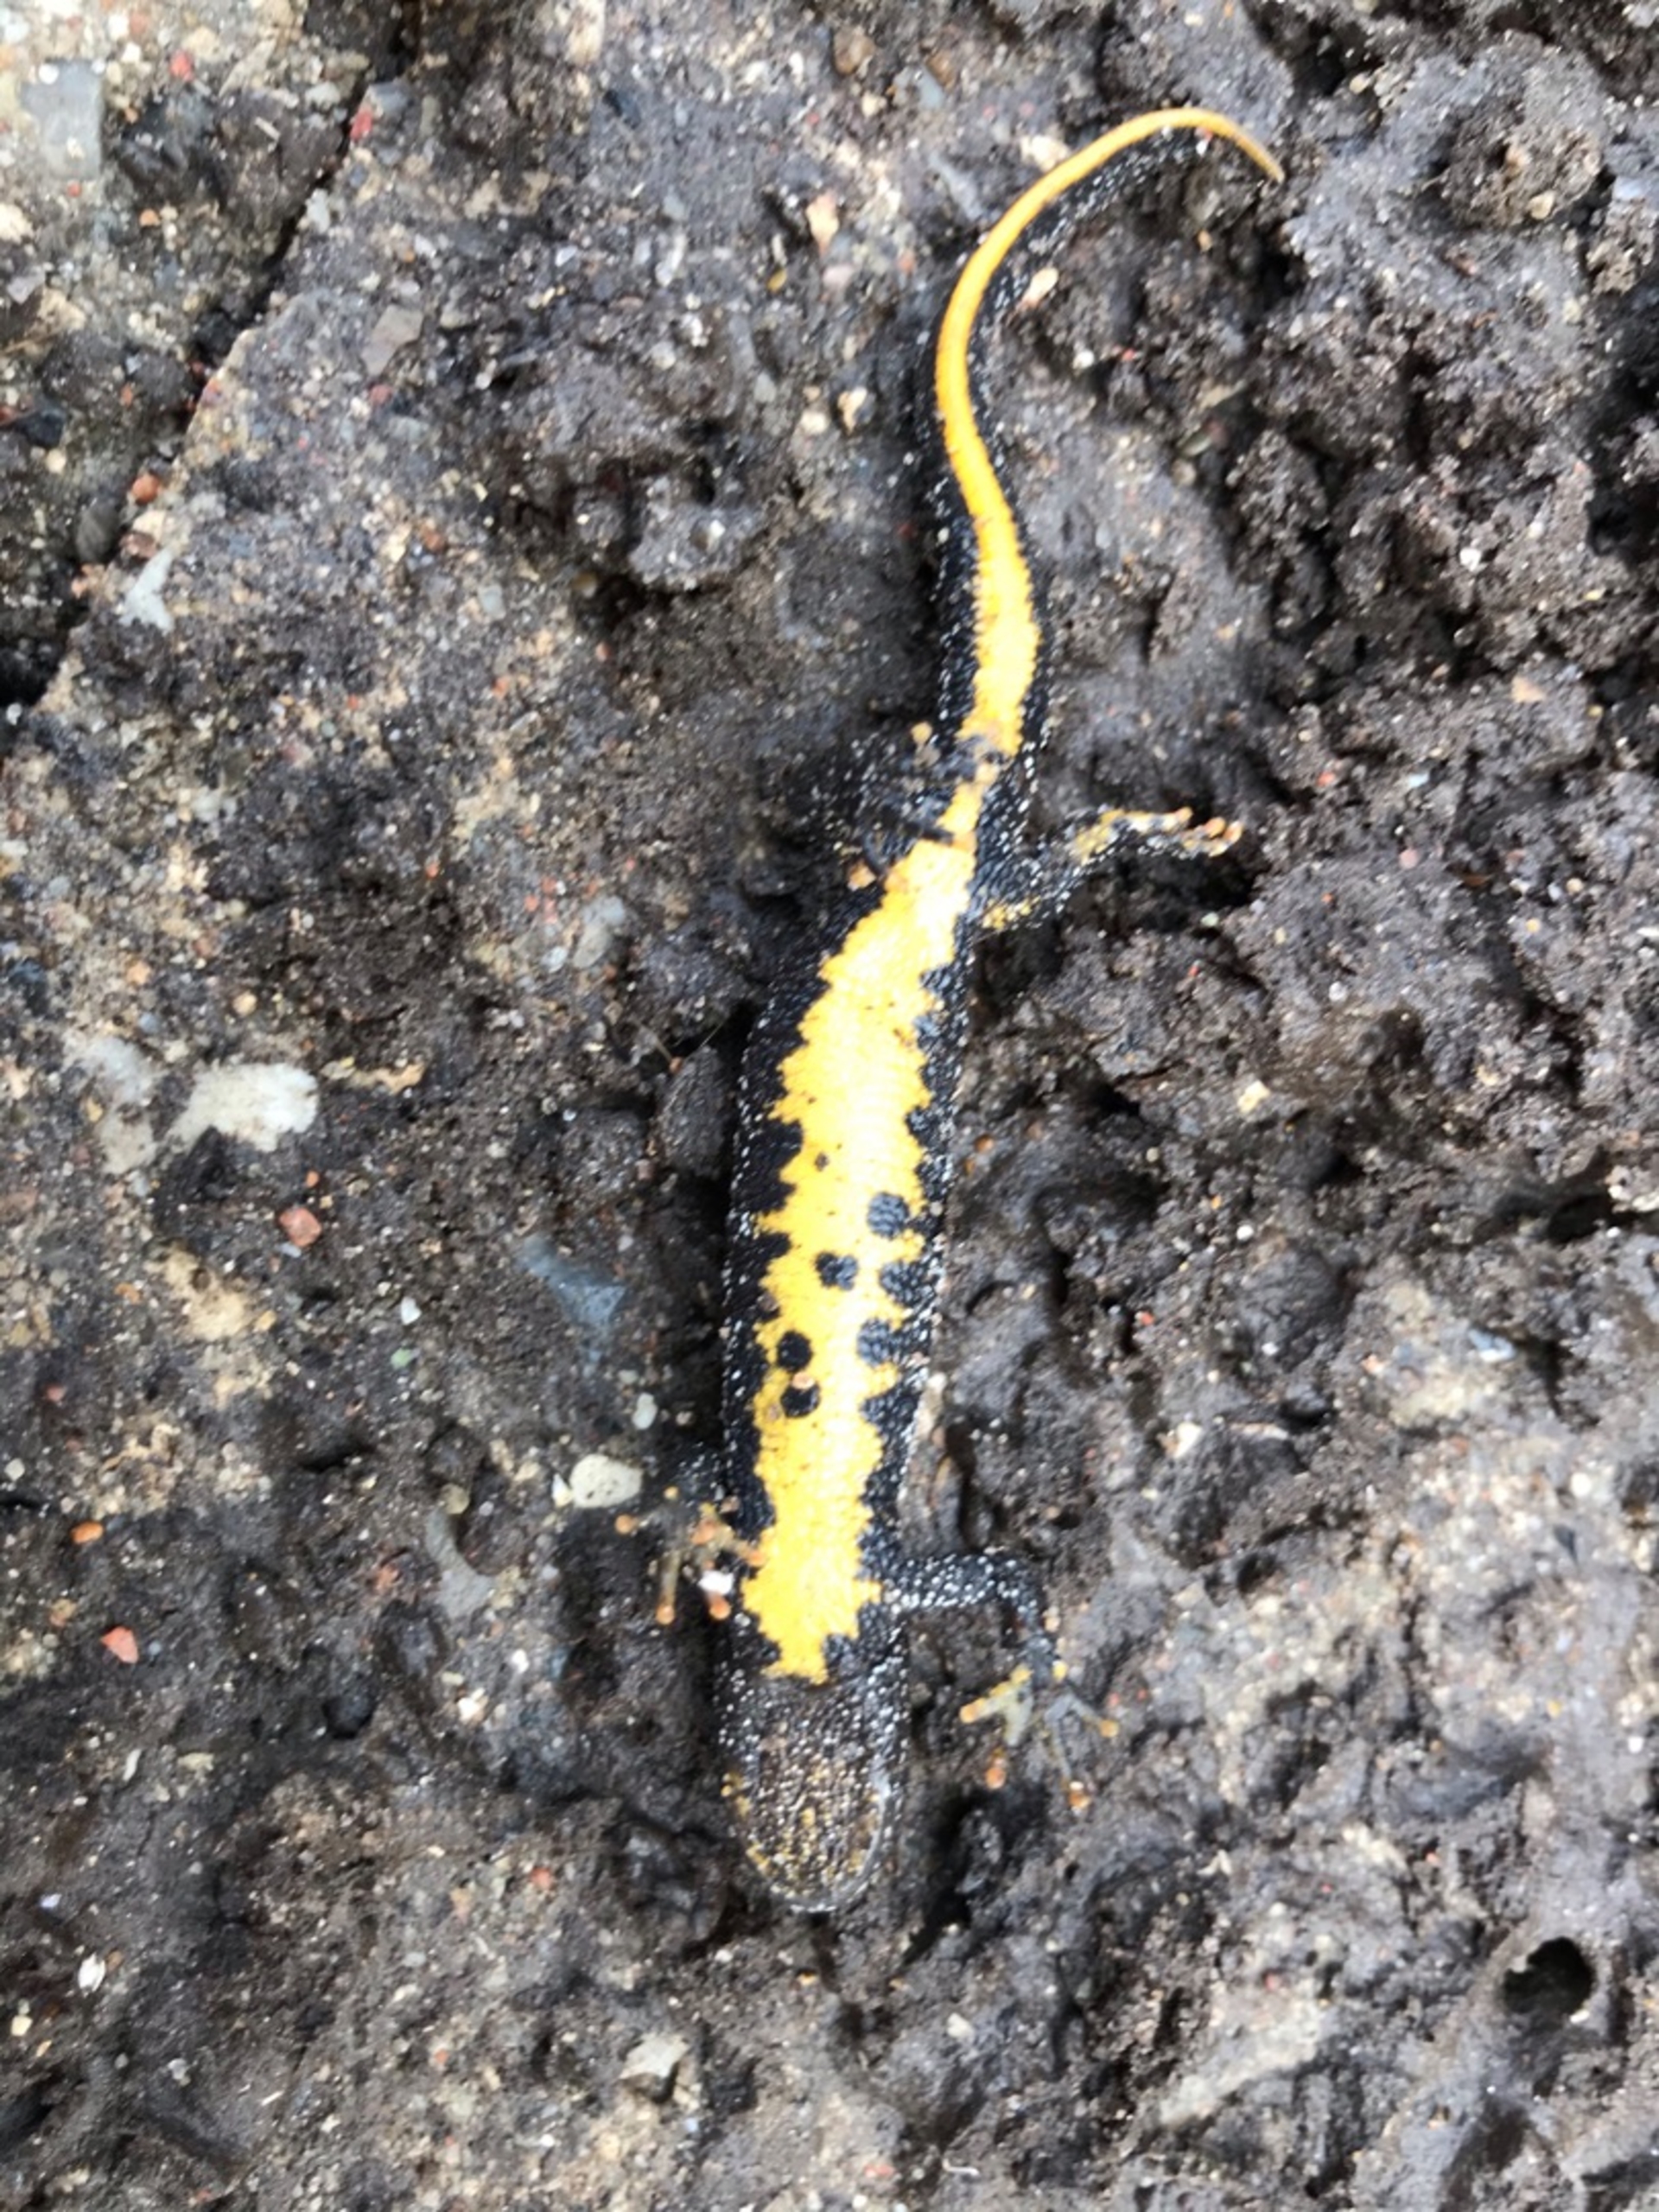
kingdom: Animalia
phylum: Chordata
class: Amphibia
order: Caudata
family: Salamandridae
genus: Triturus
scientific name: Triturus cristatus
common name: Stor vandsalamander
